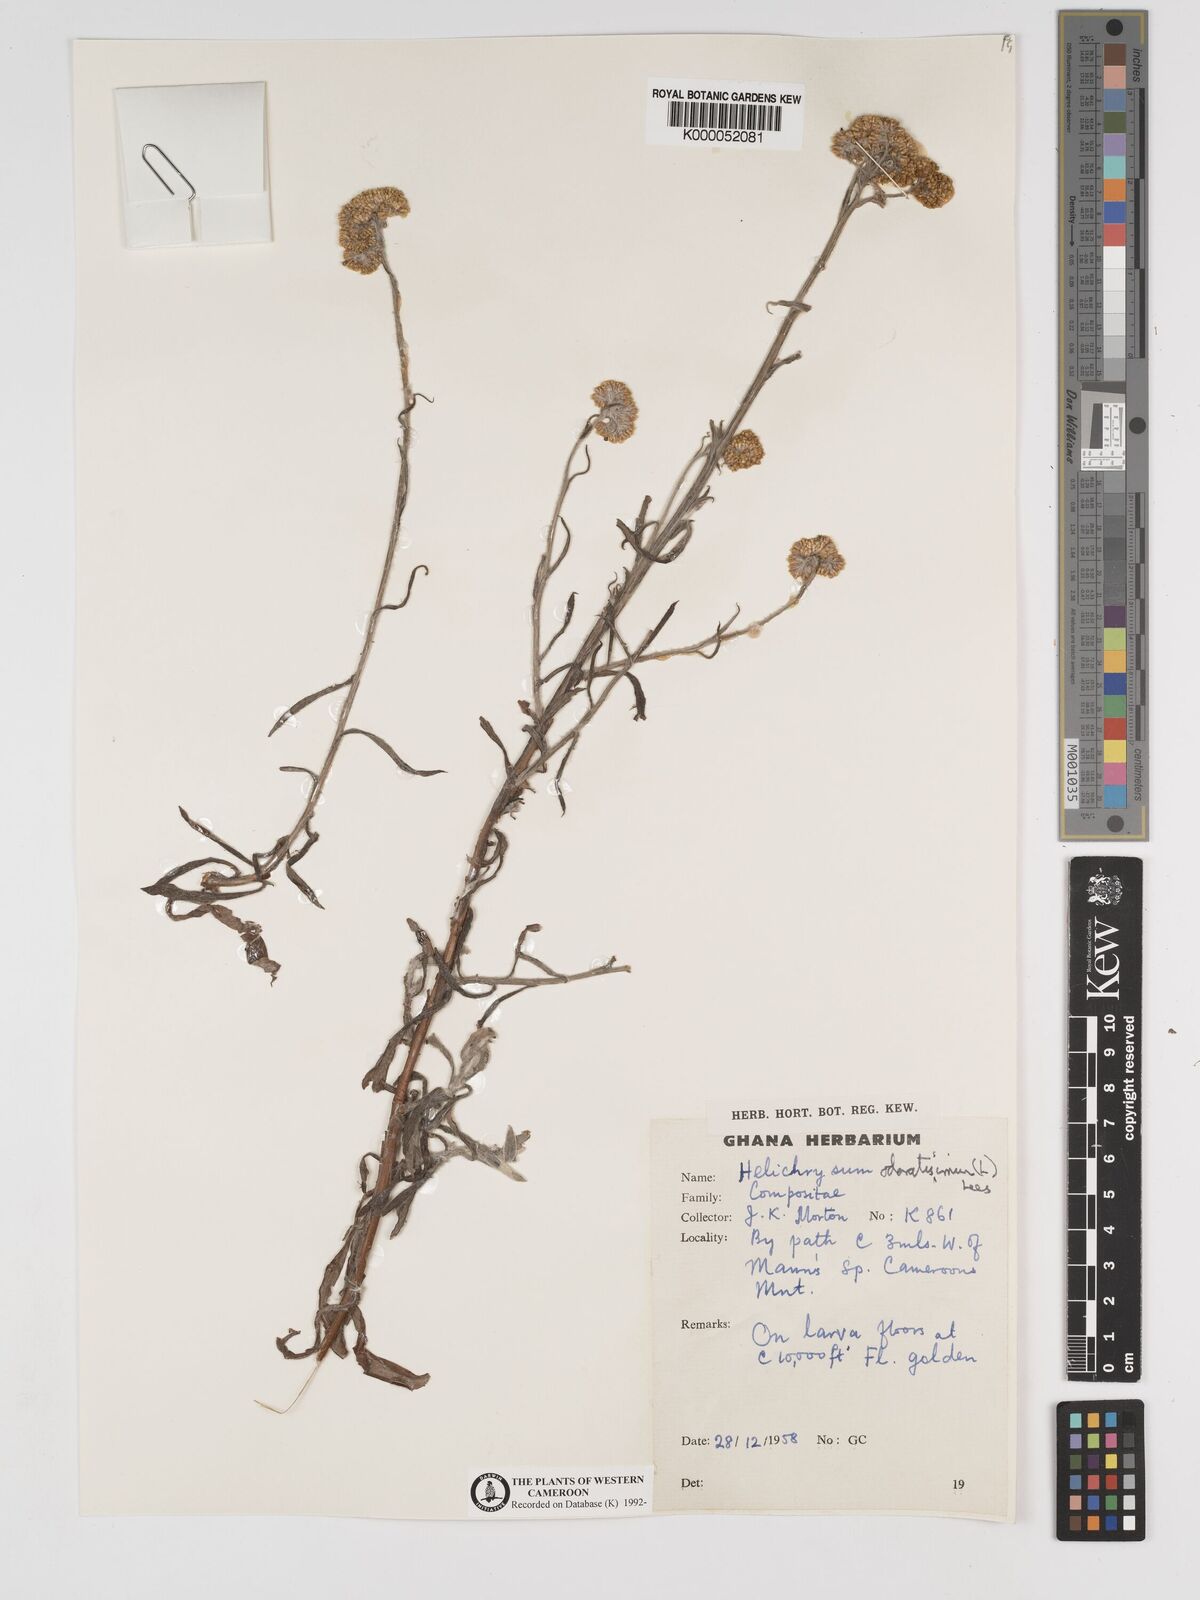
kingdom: Plantae
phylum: Tracheophyta
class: Magnoliopsida
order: Asterales
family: Asteraceae
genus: Helichrysum
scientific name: Helichrysum odoratissimum
